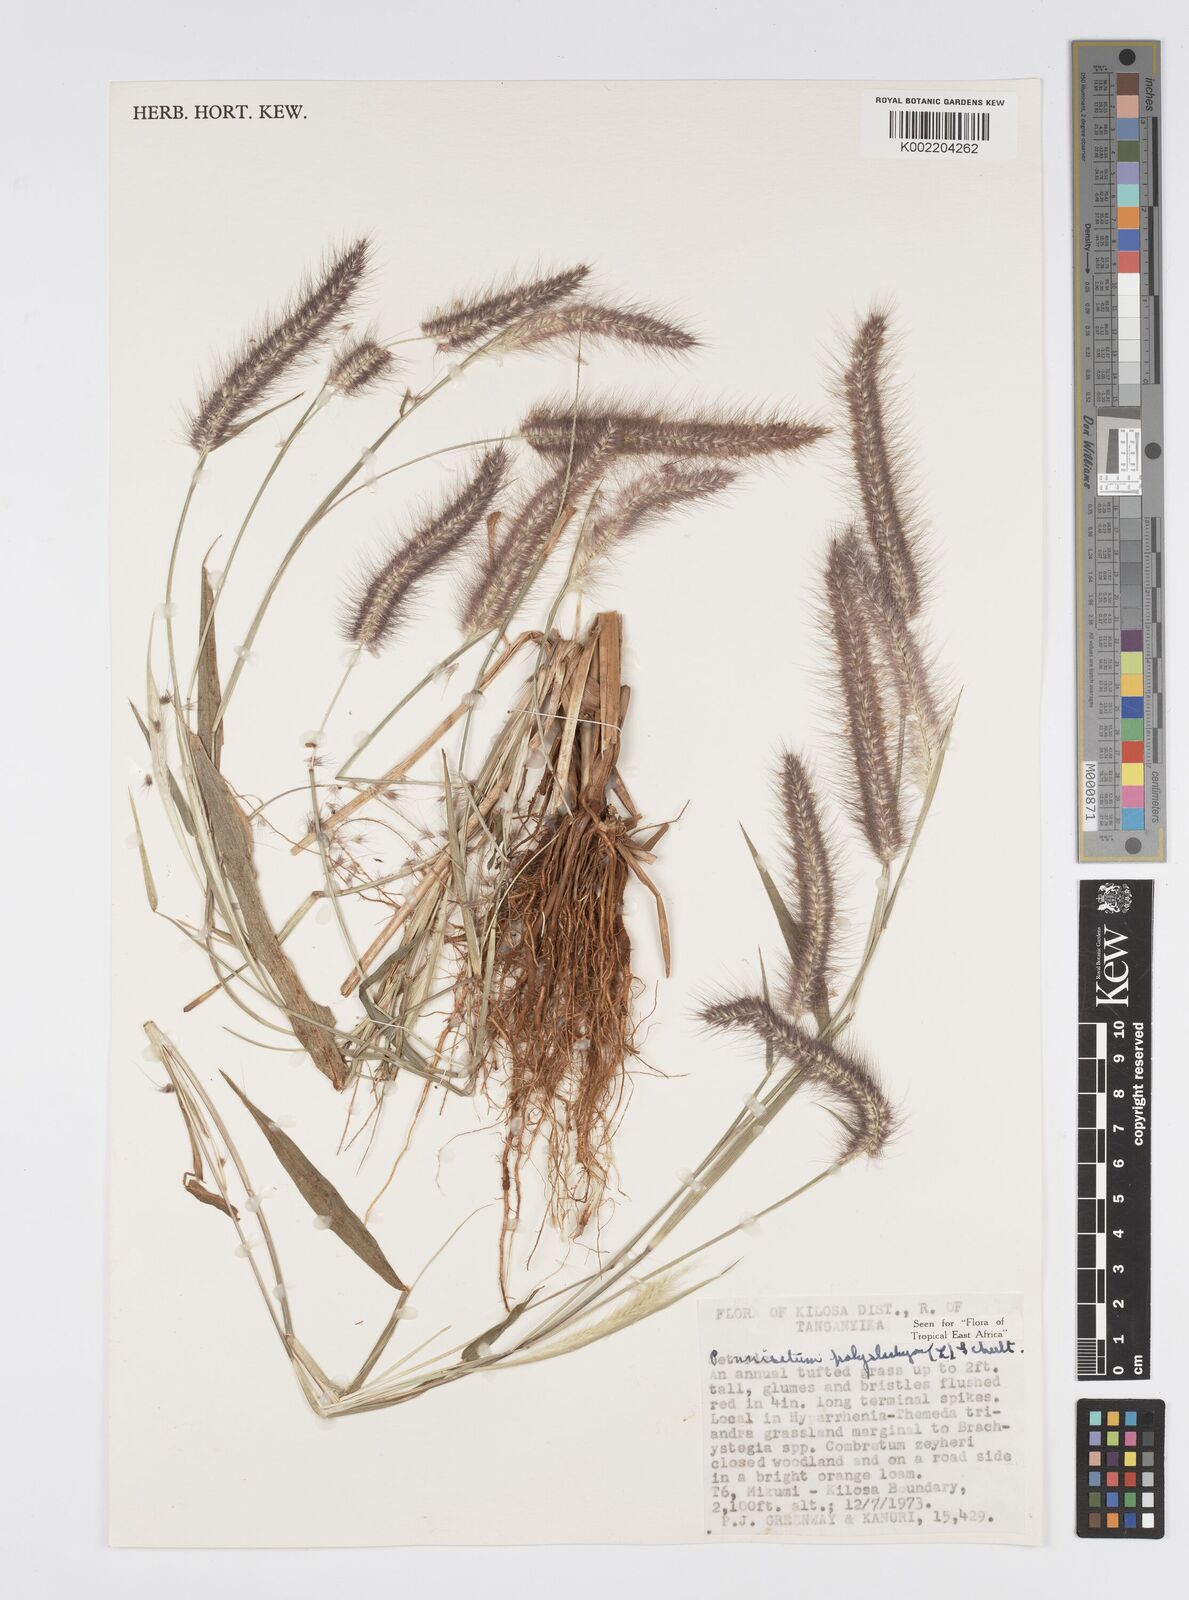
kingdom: Plantae
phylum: Tracheophyta
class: Liliopsida
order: Poales
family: Poaceae
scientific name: Poaceae
